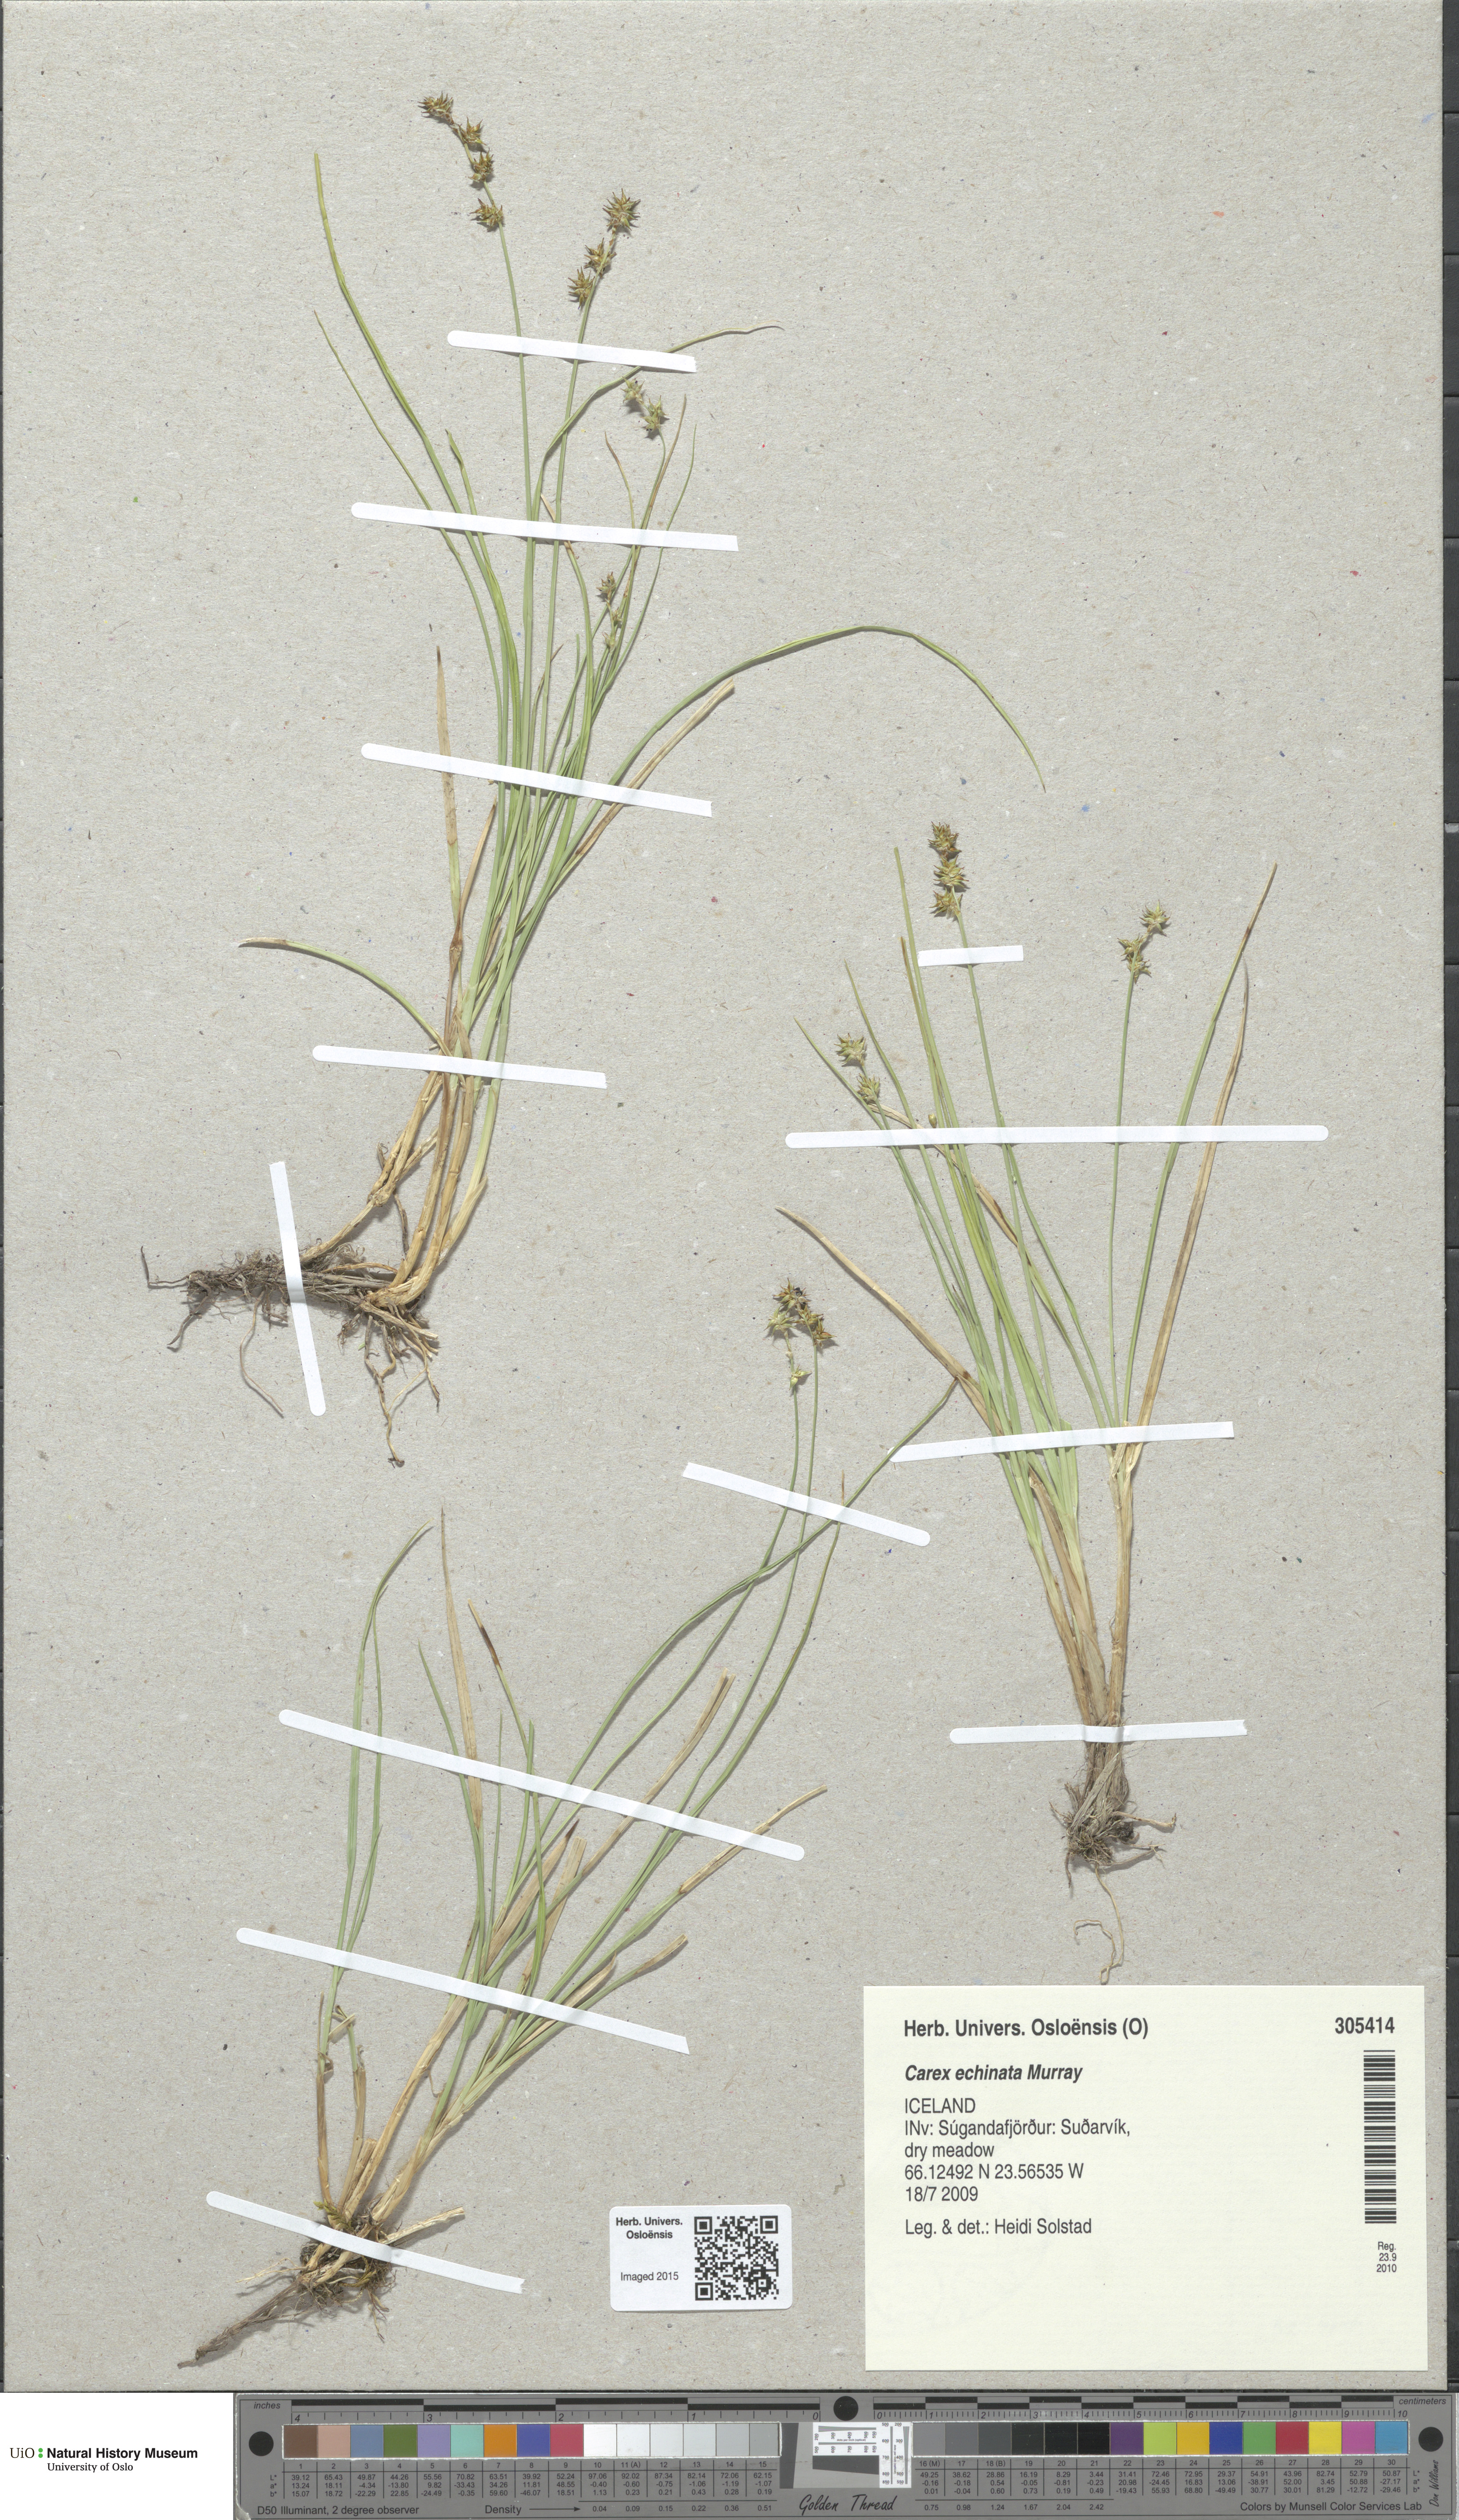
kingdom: Plantae
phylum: Tracheophyta
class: Liliopsida
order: Poales
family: Cyperaceae
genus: Carex
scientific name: Carex echinata
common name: Star sedge
